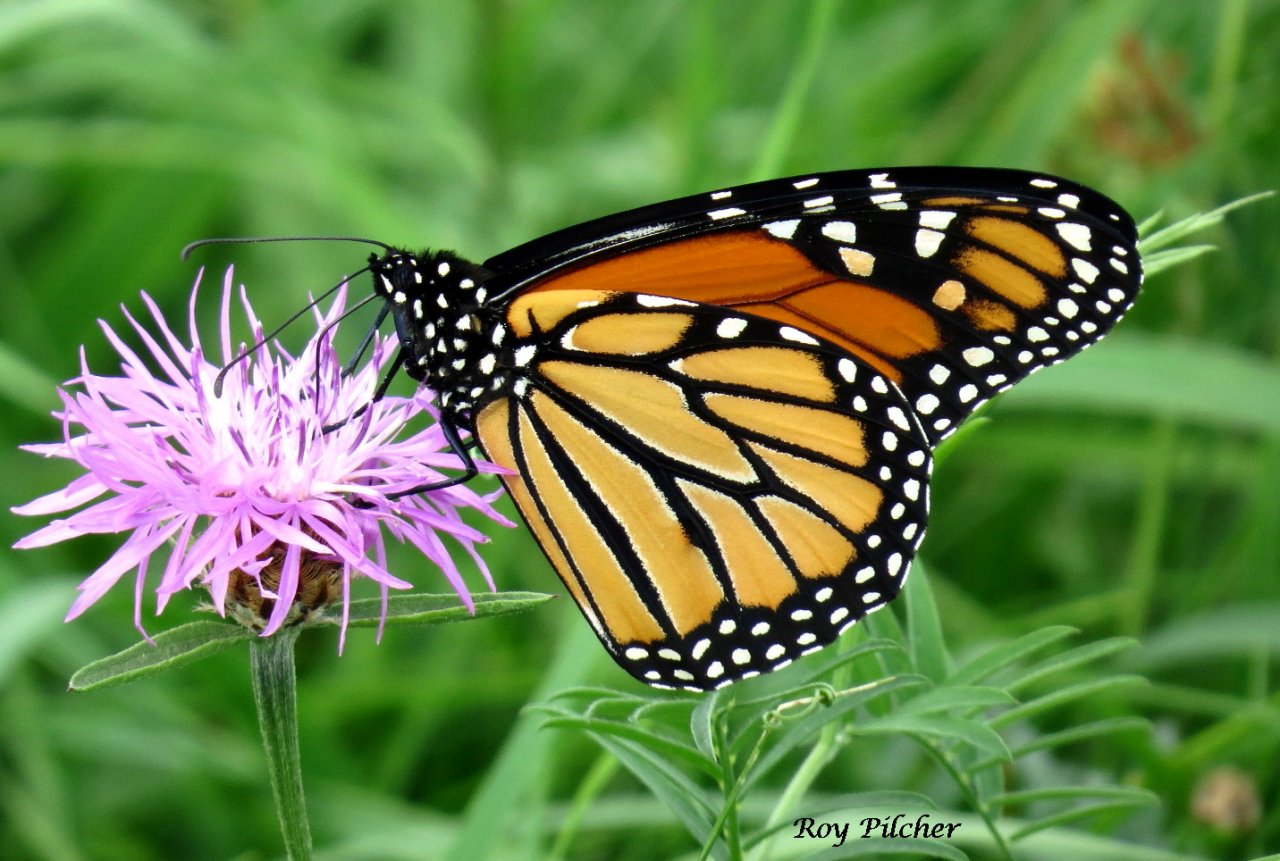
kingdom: Animalia
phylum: Arthropoda
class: Insecta
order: Lepidoptera
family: Nymphalidae
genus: Danaus
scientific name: Danaus plexippus
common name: Monarch
